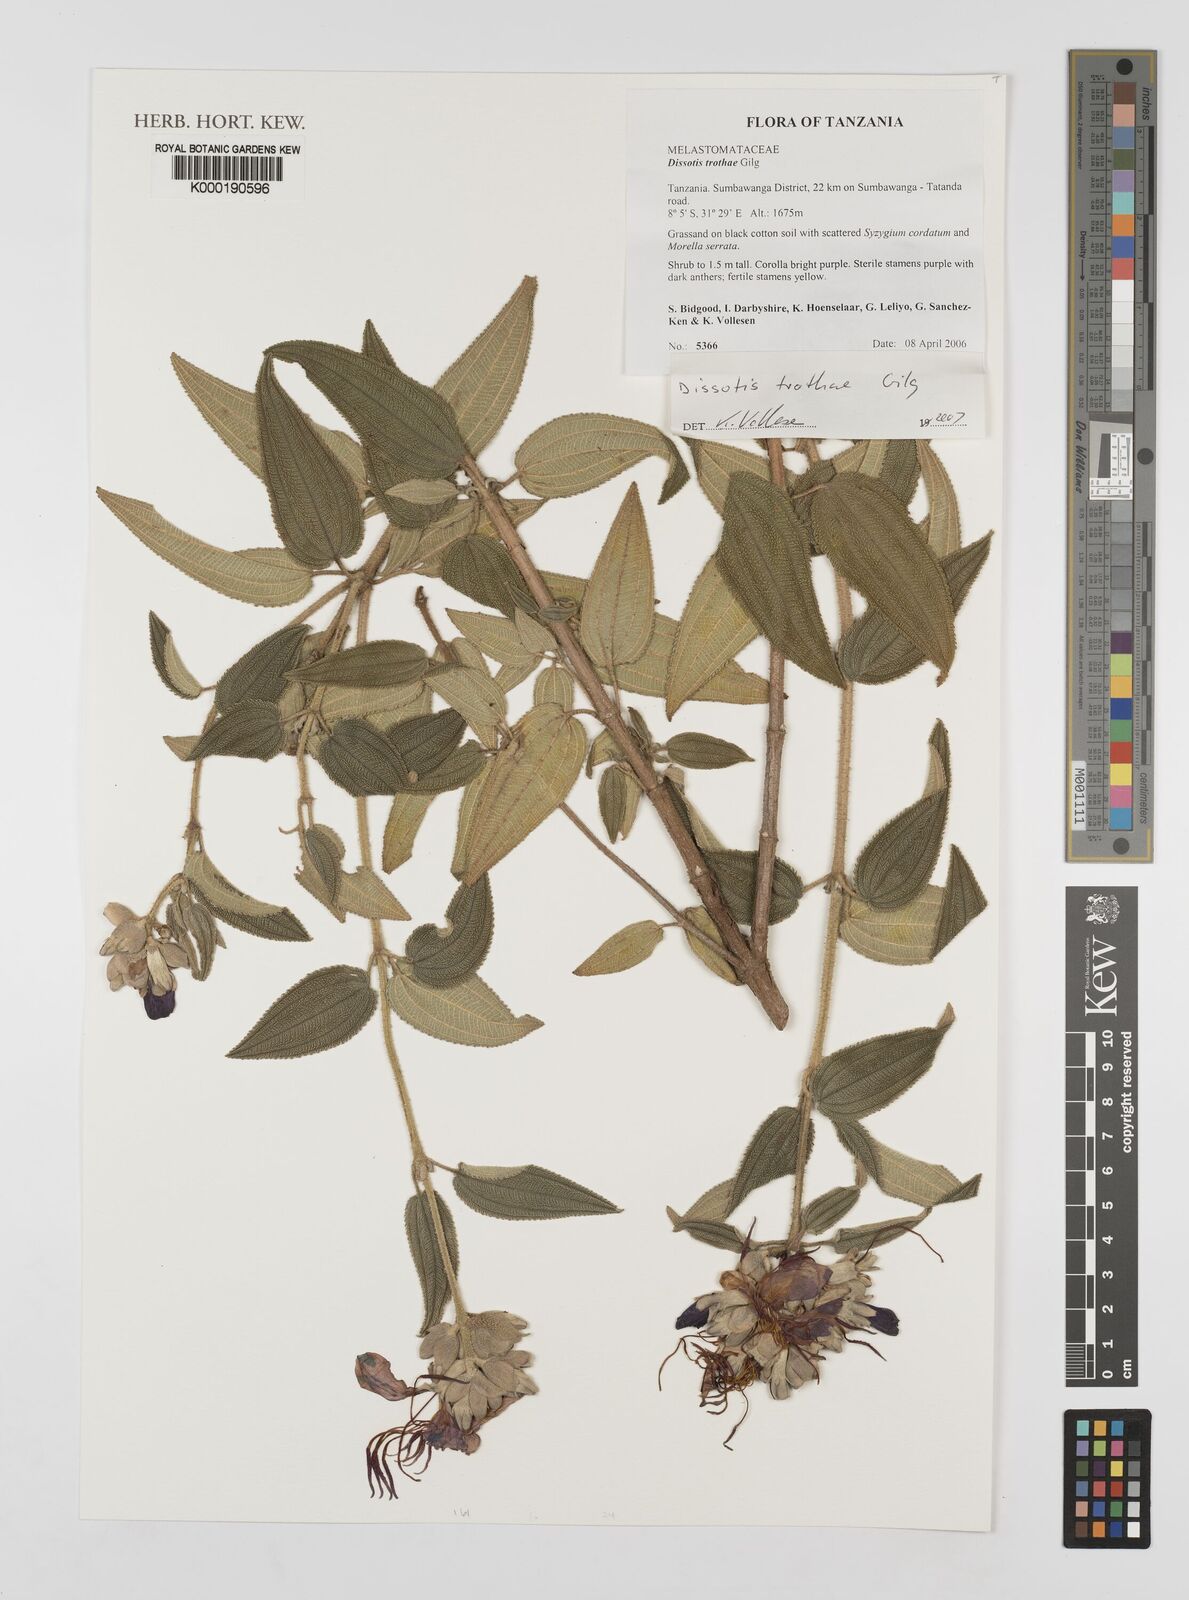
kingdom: Plantae
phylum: Tracheophyta
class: Magnoliopsida
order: Myrtales
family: Melastomataceae
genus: Rosettea
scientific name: Rosettea trothae
